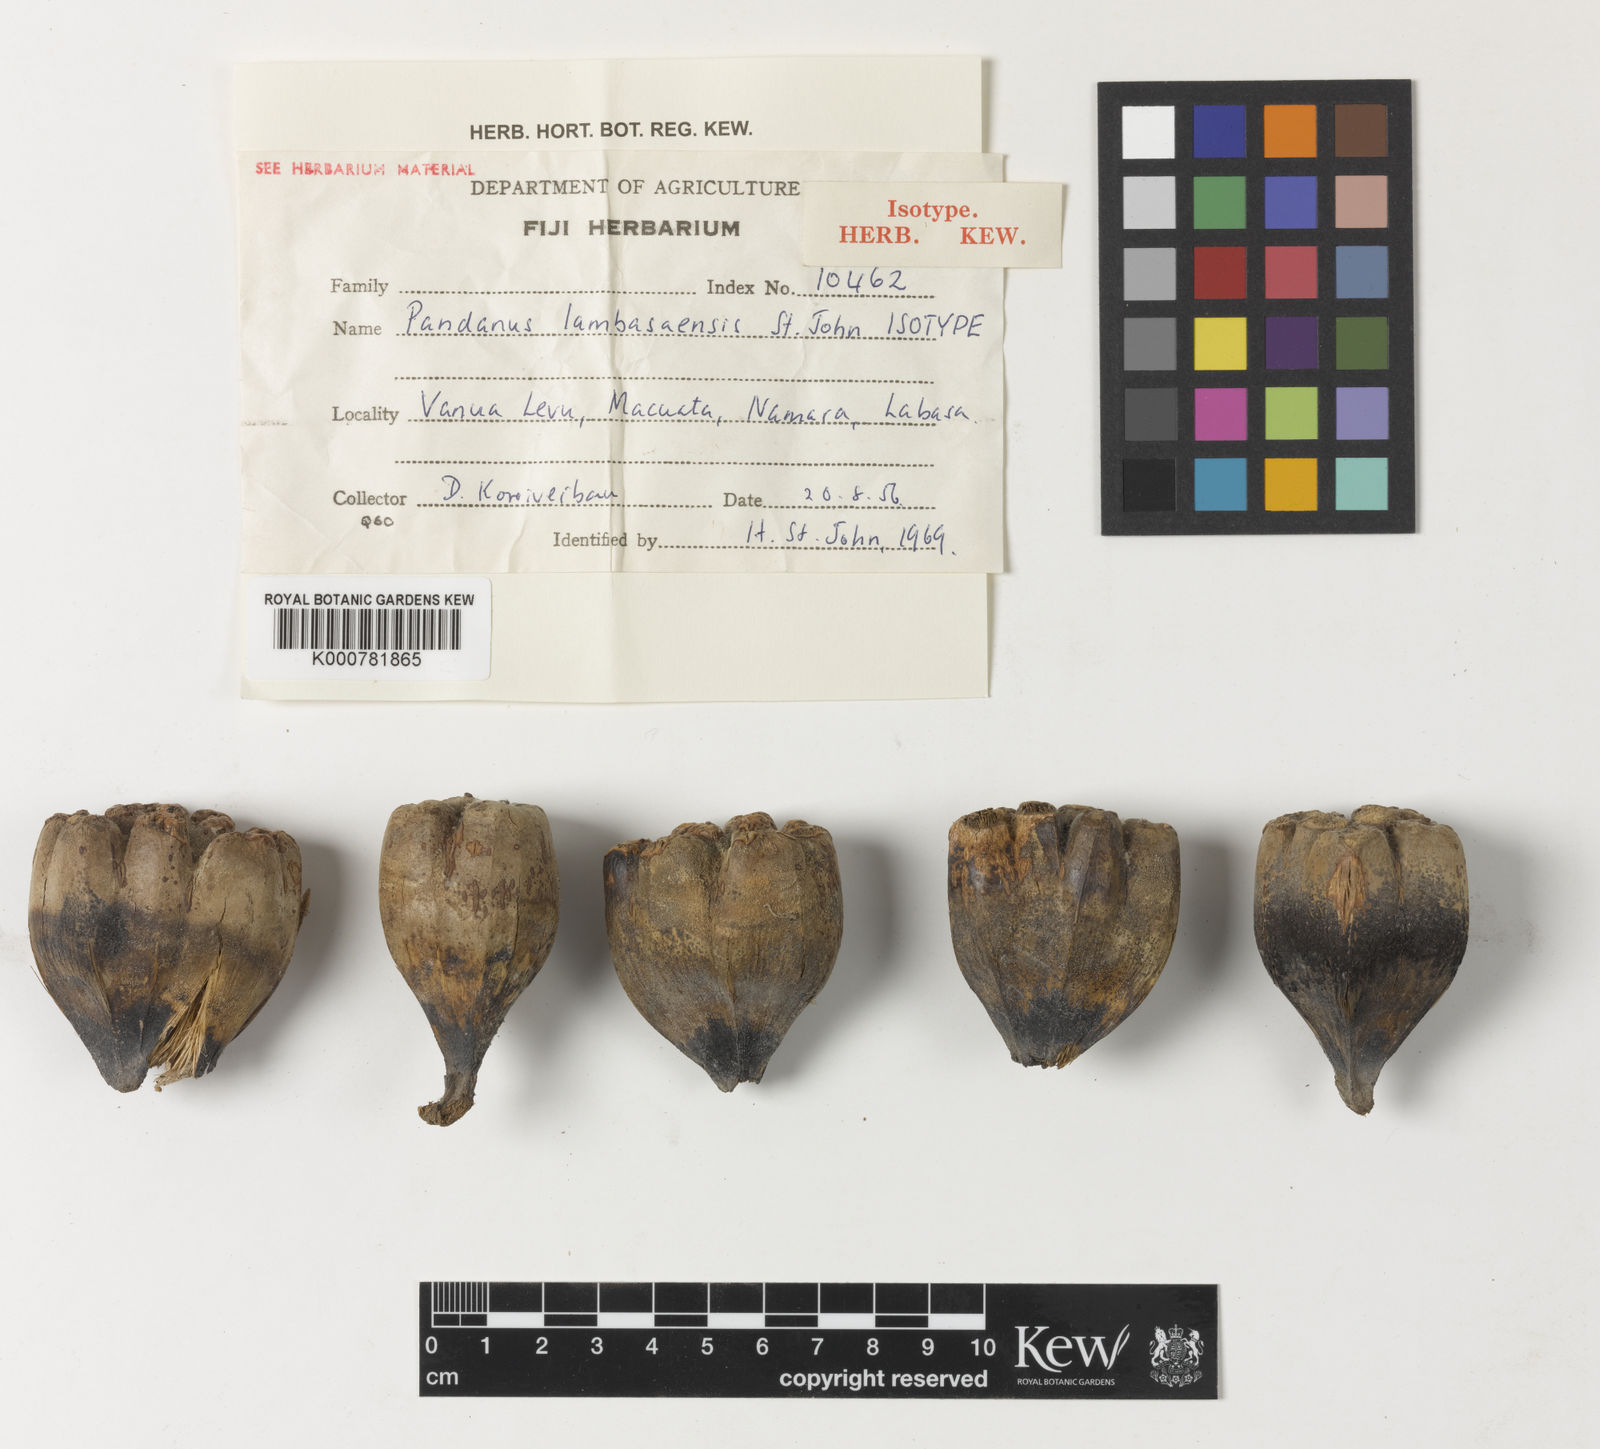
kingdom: Plantae
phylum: Tracheophyta
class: Liliopsida
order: Pandanales
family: Pandanaceae
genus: Pandanus
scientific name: Pandanus tectorius
